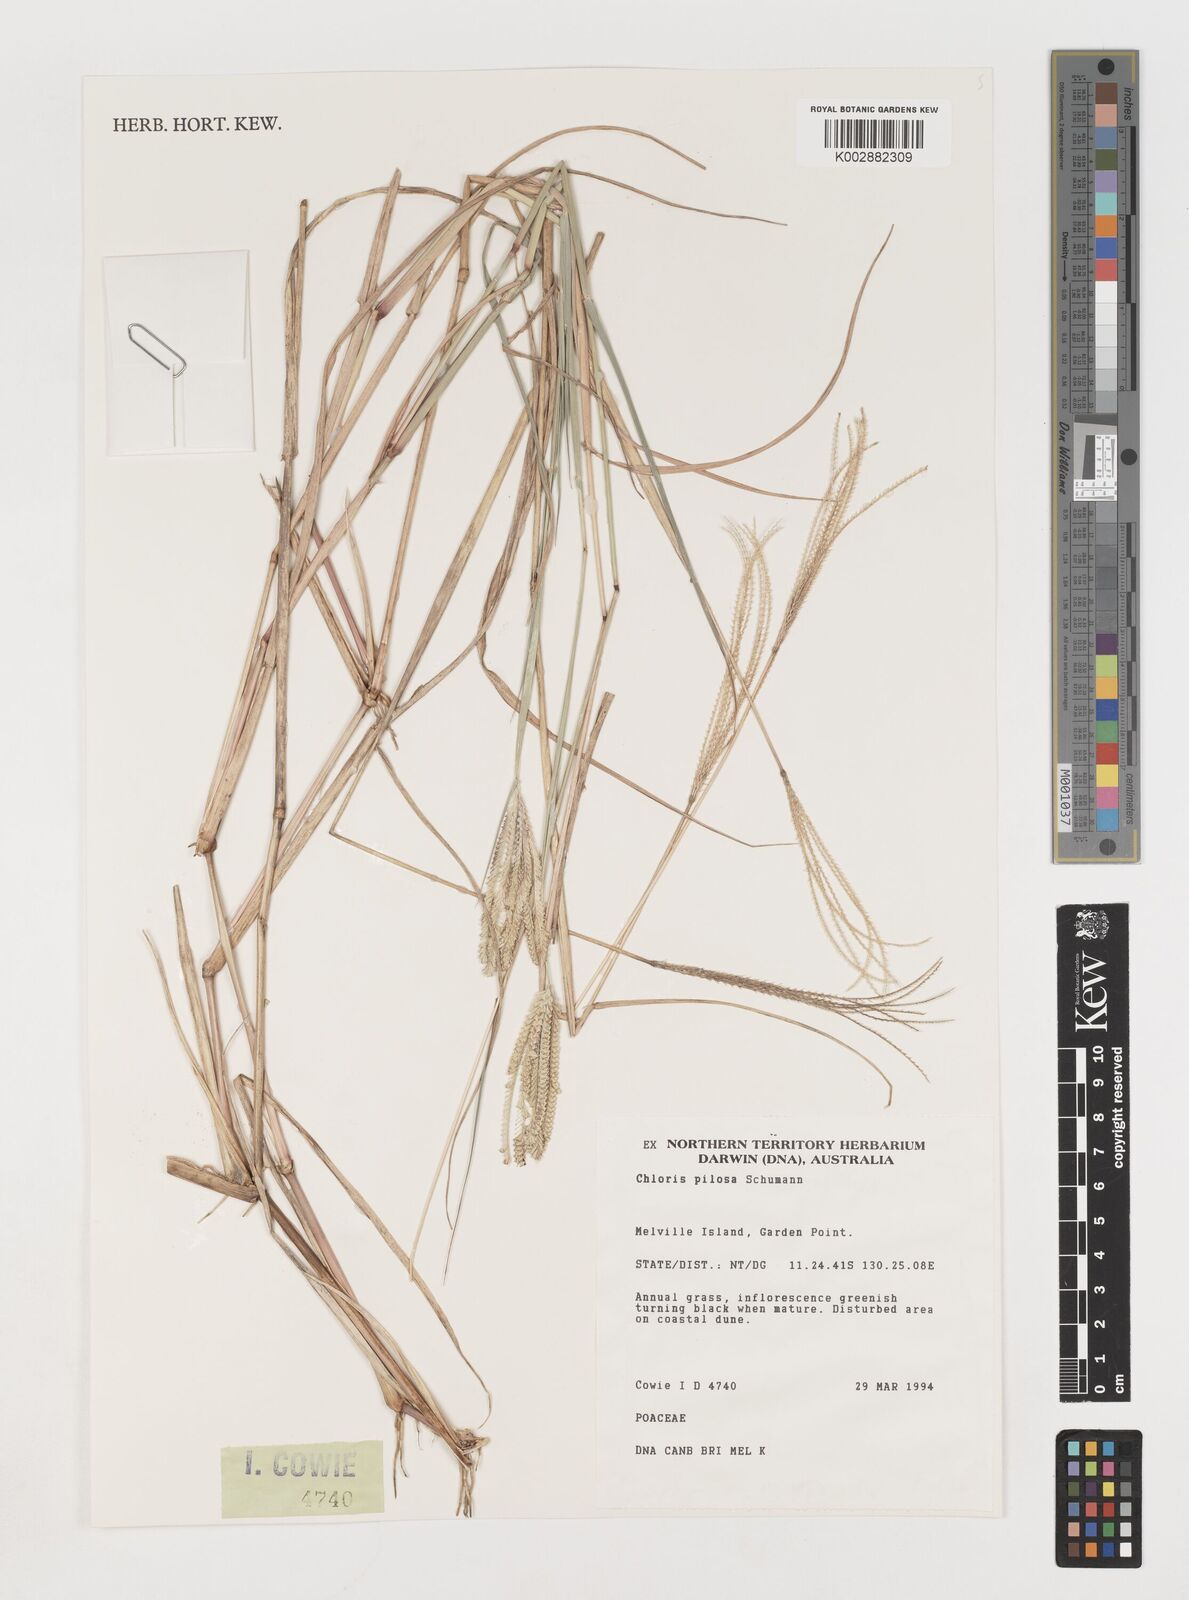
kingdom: Plantae
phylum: Tracheophyta
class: Liliopsida
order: Poales
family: Poaceae
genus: Chloris
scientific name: Chloris pilosa
